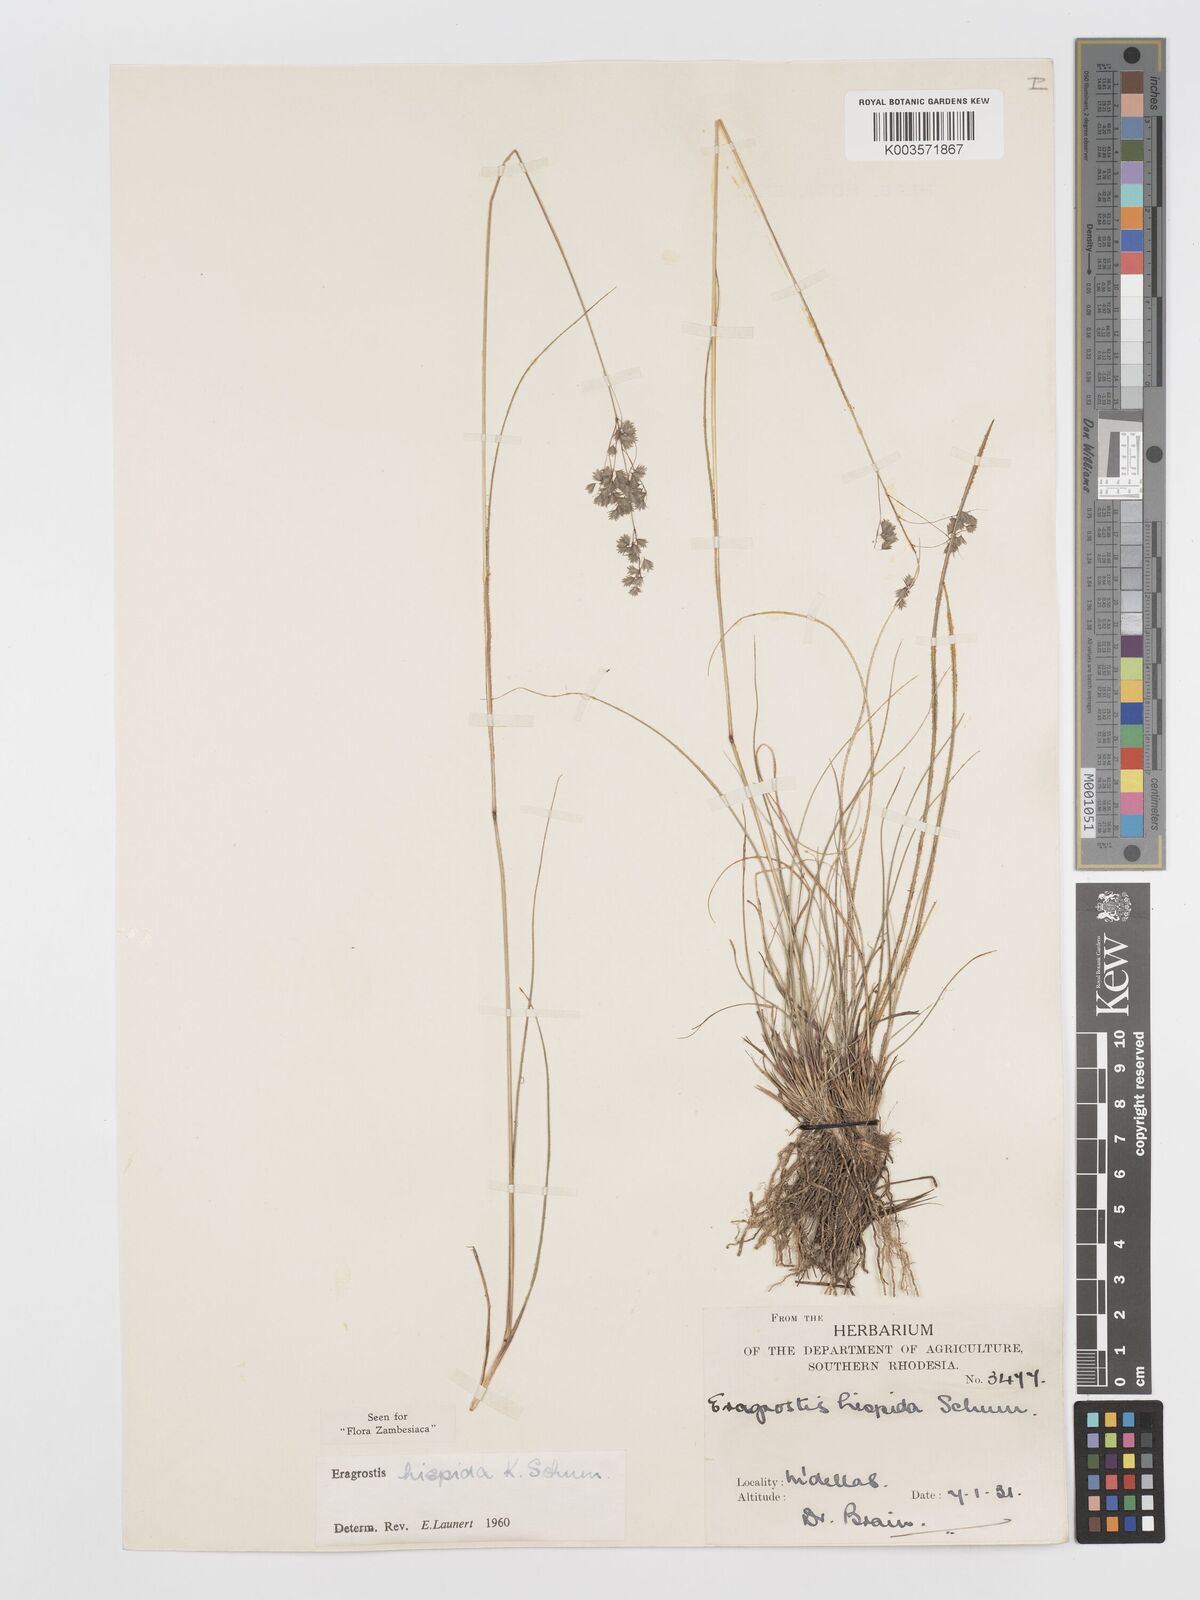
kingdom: Plantae
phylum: Tracheophyta
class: Liliopsida
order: Poales
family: Poaceae
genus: Eragrostis
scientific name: Eragrostis hispida
